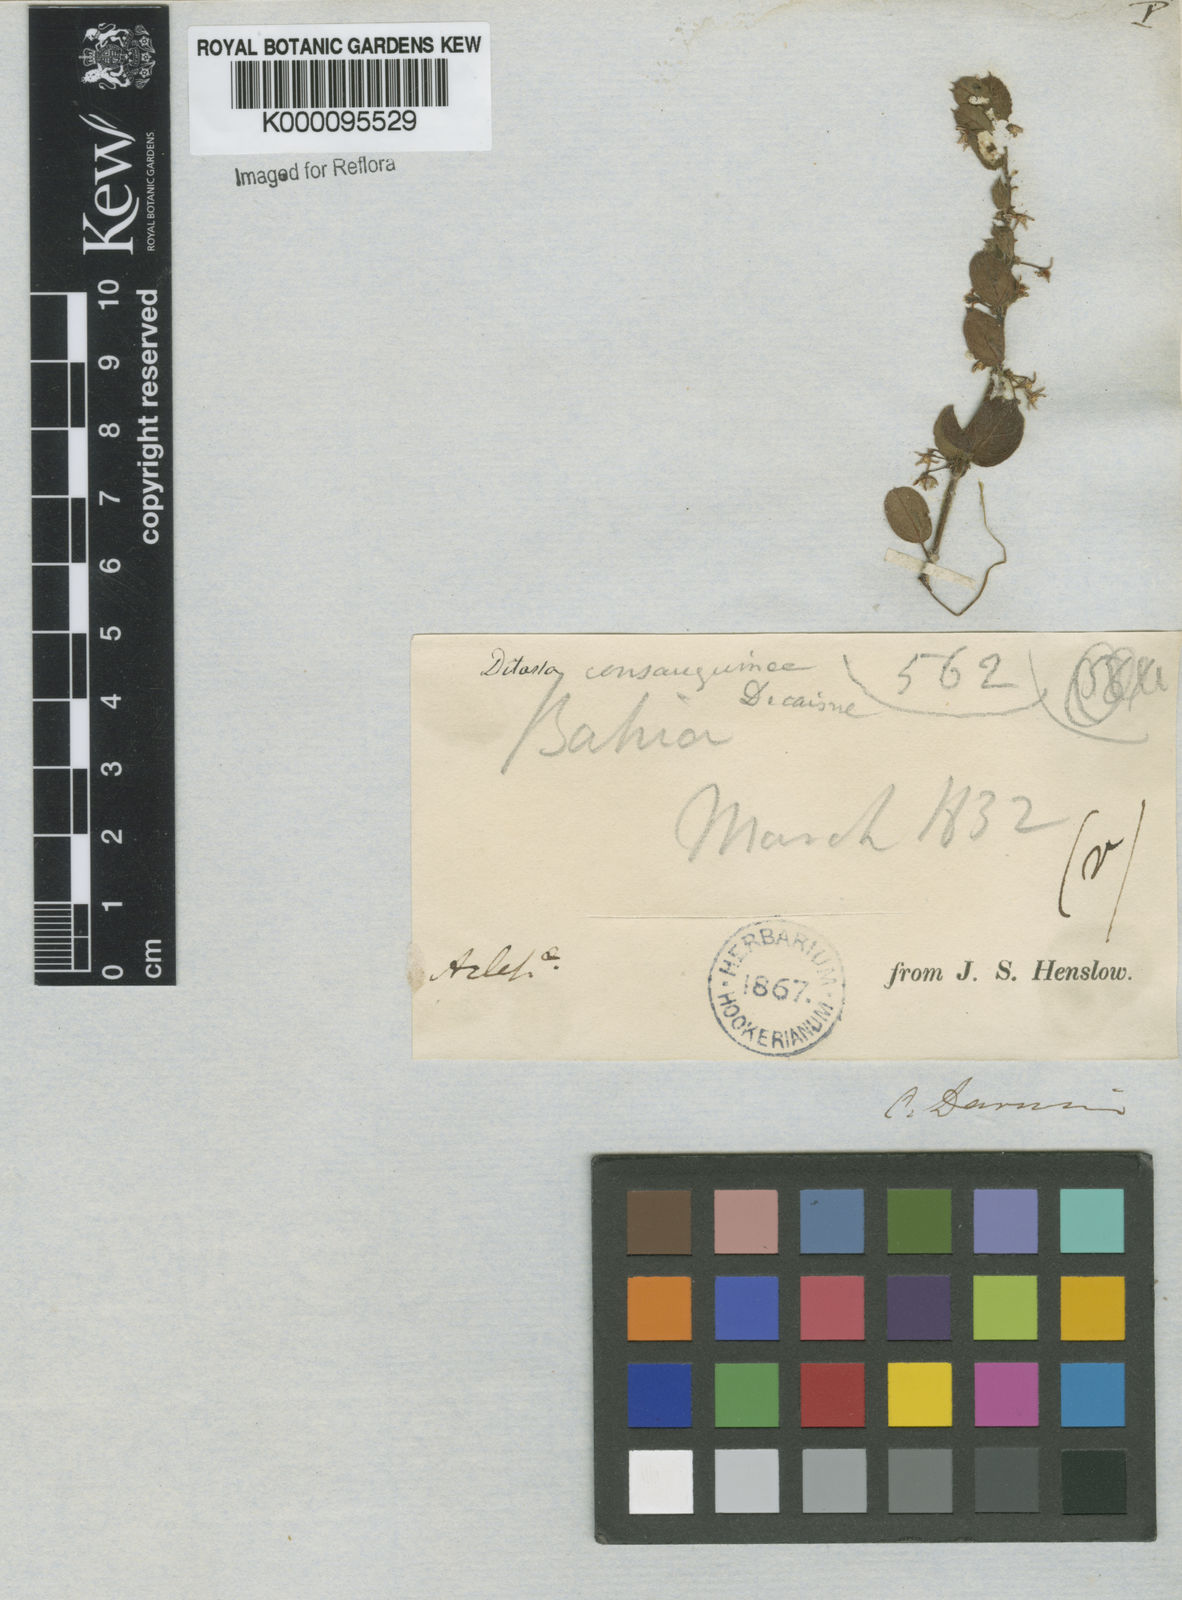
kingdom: Plantae
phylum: Tracheophyta
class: Magnoliopsida
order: Gentianales
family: Apocynaceae
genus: Ditassa
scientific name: Ditassa hispida
